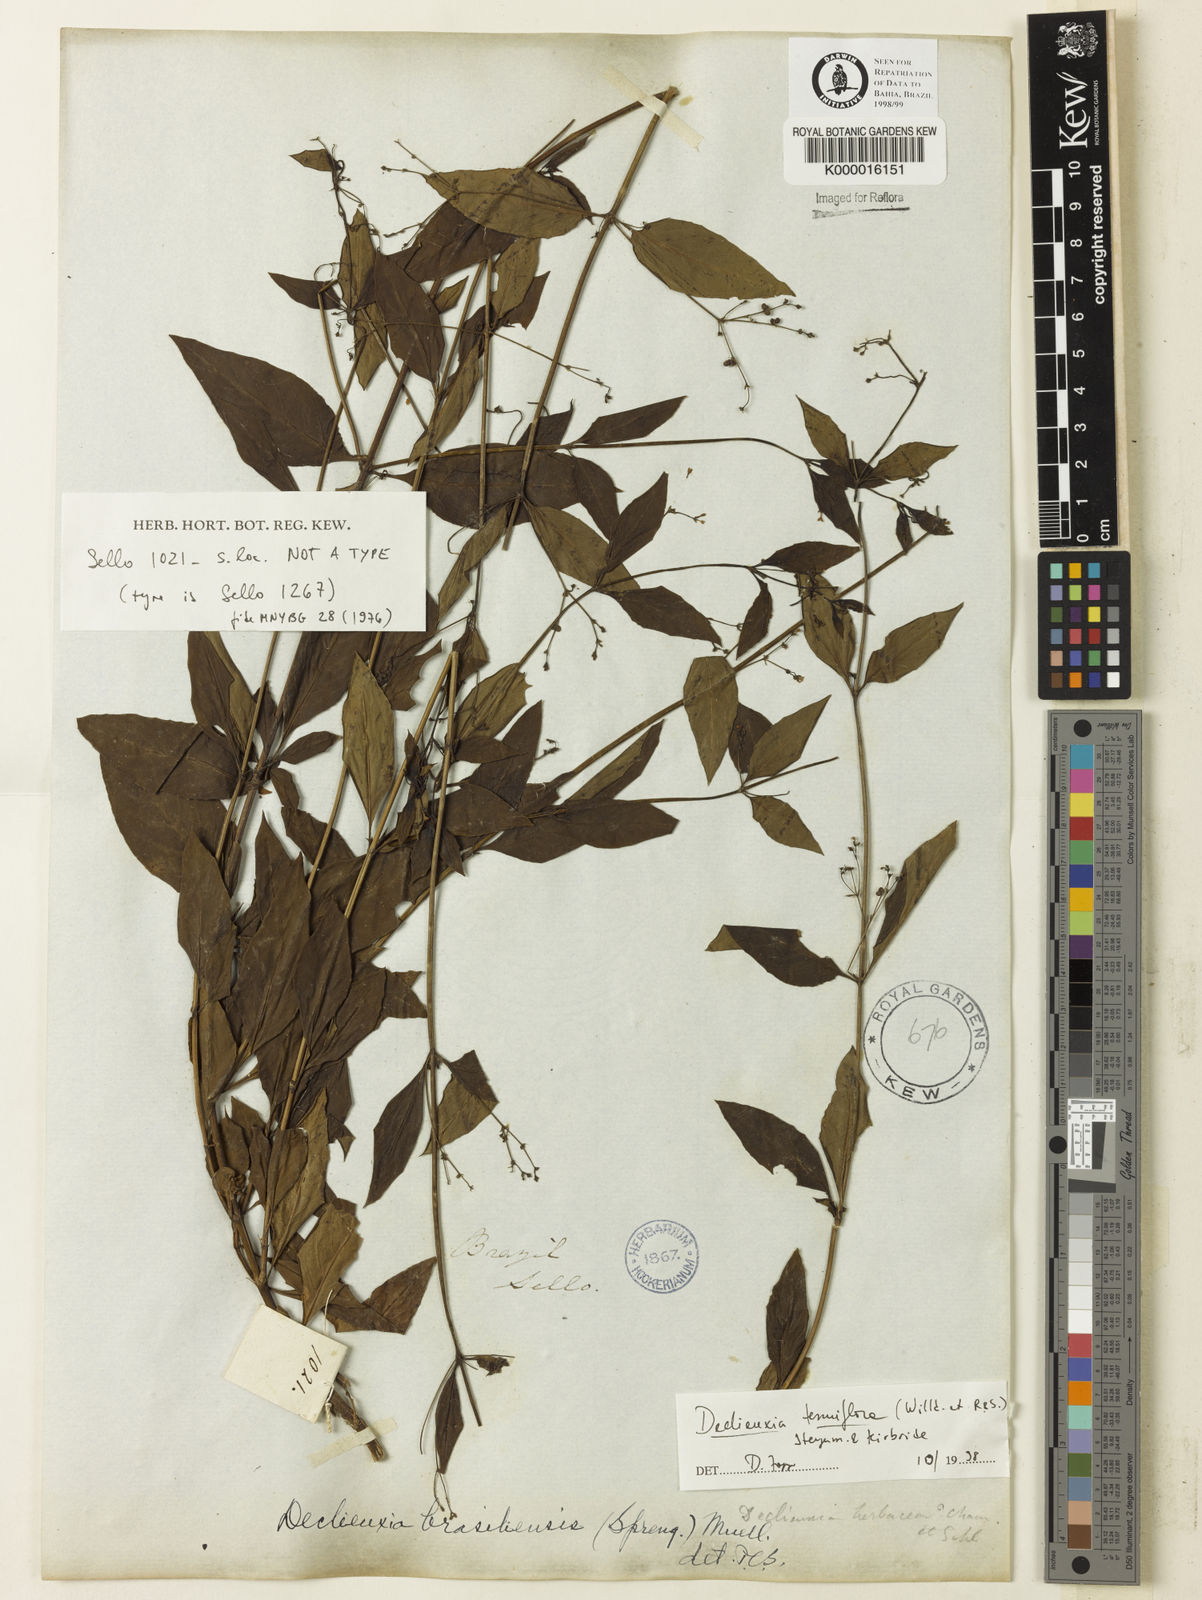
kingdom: Plantae
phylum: Tracheophyta
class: Magnoliopsida
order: Gentianales
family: Rubiaceae
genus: Declieuxia
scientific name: Declieuxia tenuiflora
